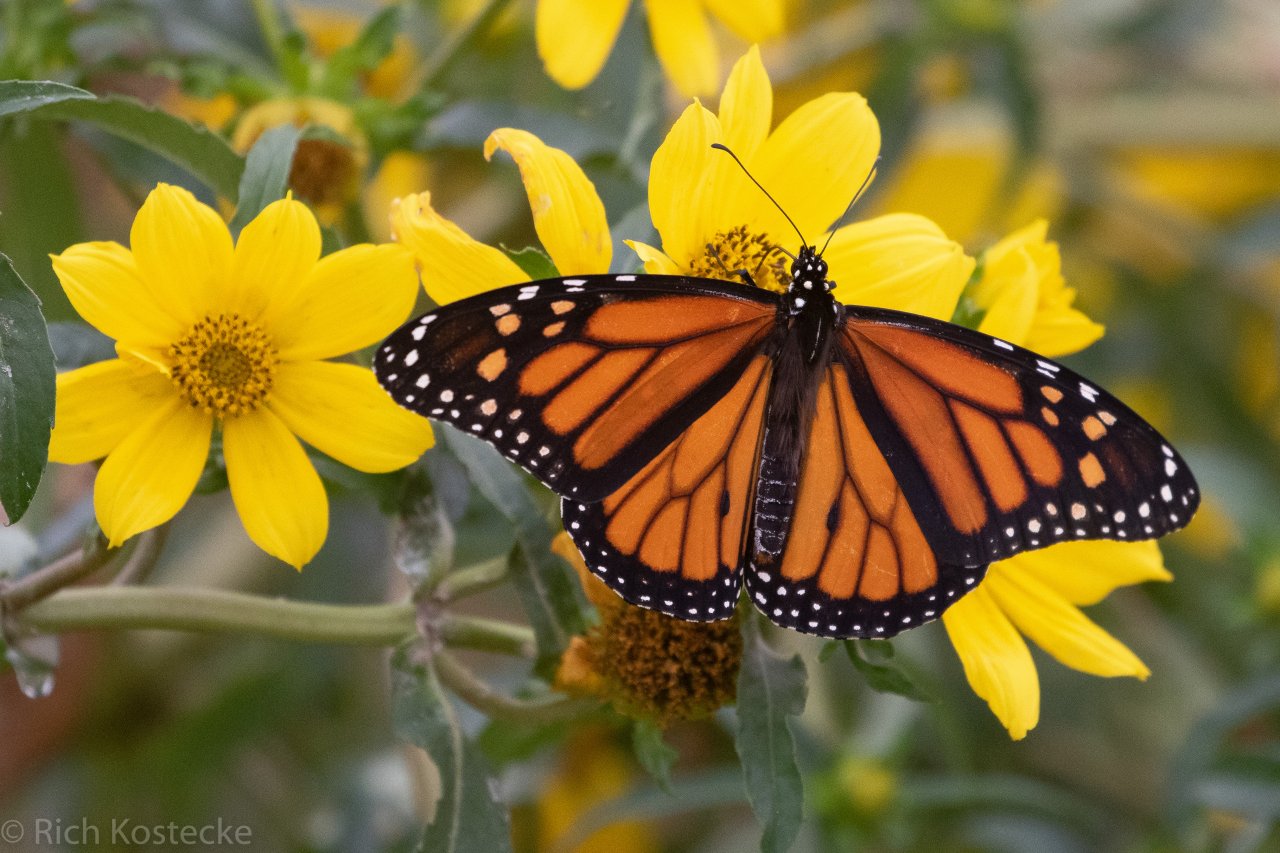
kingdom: Animalia
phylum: Arthropoda
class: Insecta
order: Lepidoptera
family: Nymphalidae
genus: Danaus
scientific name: Danaus plexippus
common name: Monarch
